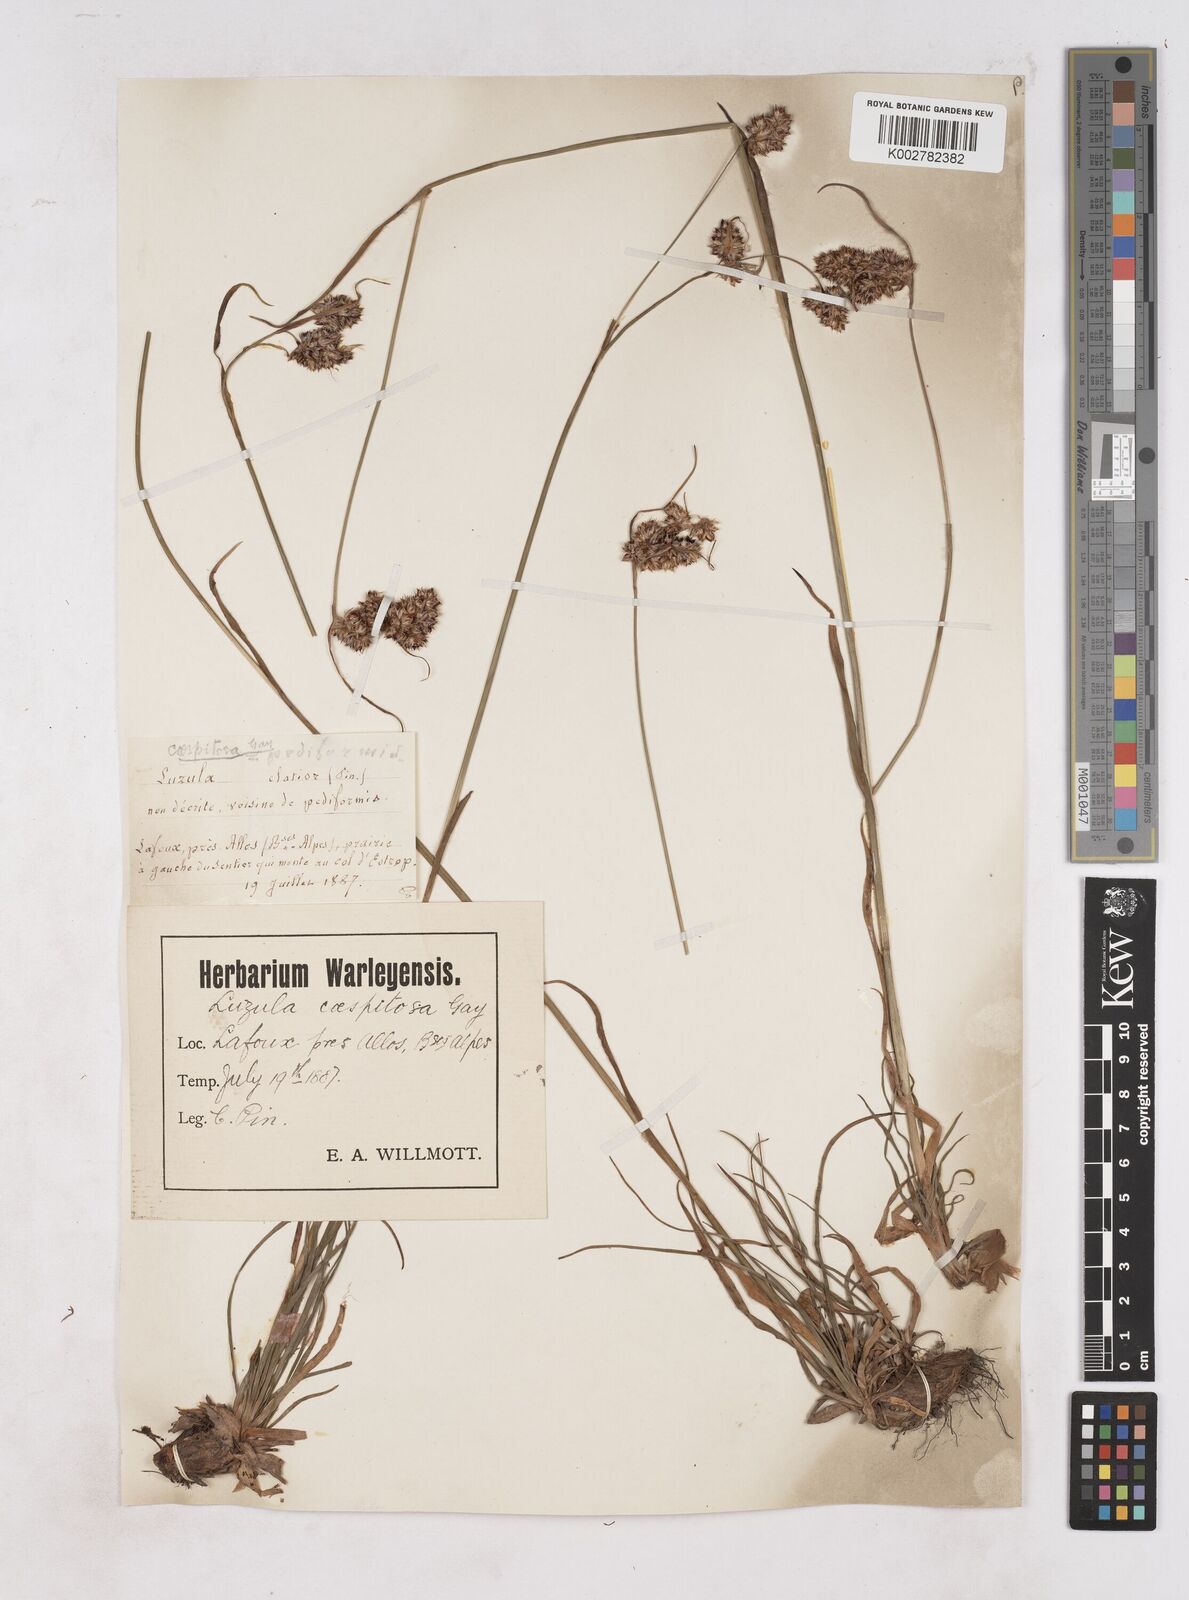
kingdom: Plantae
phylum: Tracheophyta
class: Liliopsida
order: Poales
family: Juncaceae
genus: Luzula
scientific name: Luzula pediformis
